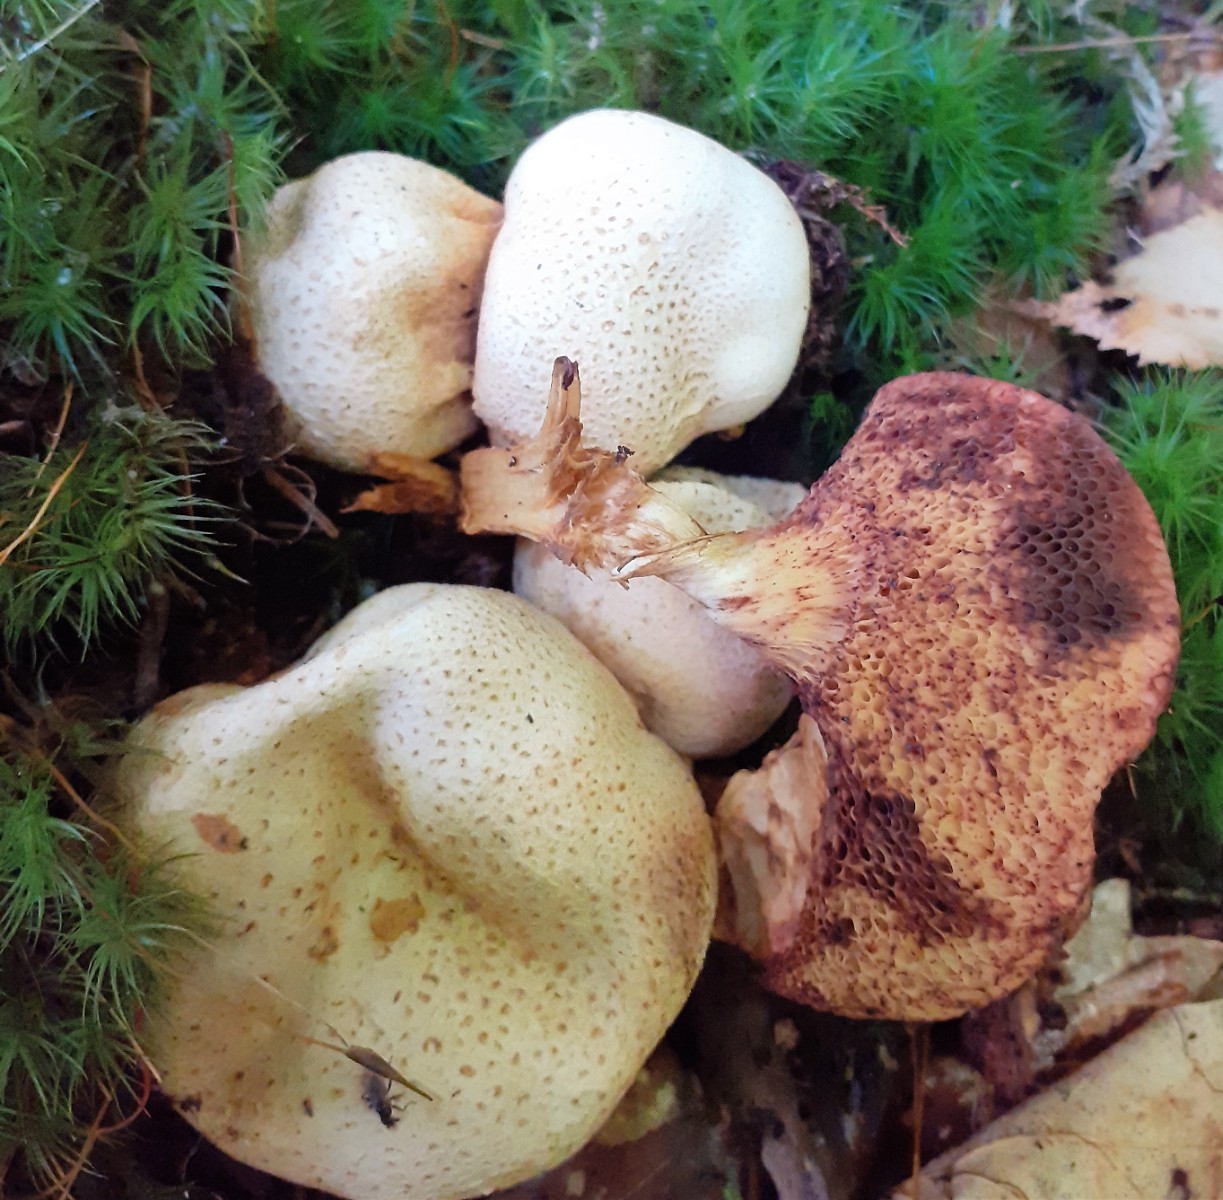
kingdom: Fungi
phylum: Basidiomycota
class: Agaricomycetes
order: Boletales
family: Boletaceae
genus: Pseudoboletus
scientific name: Pseudoboletus parasiticus
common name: snyltende rørhat
